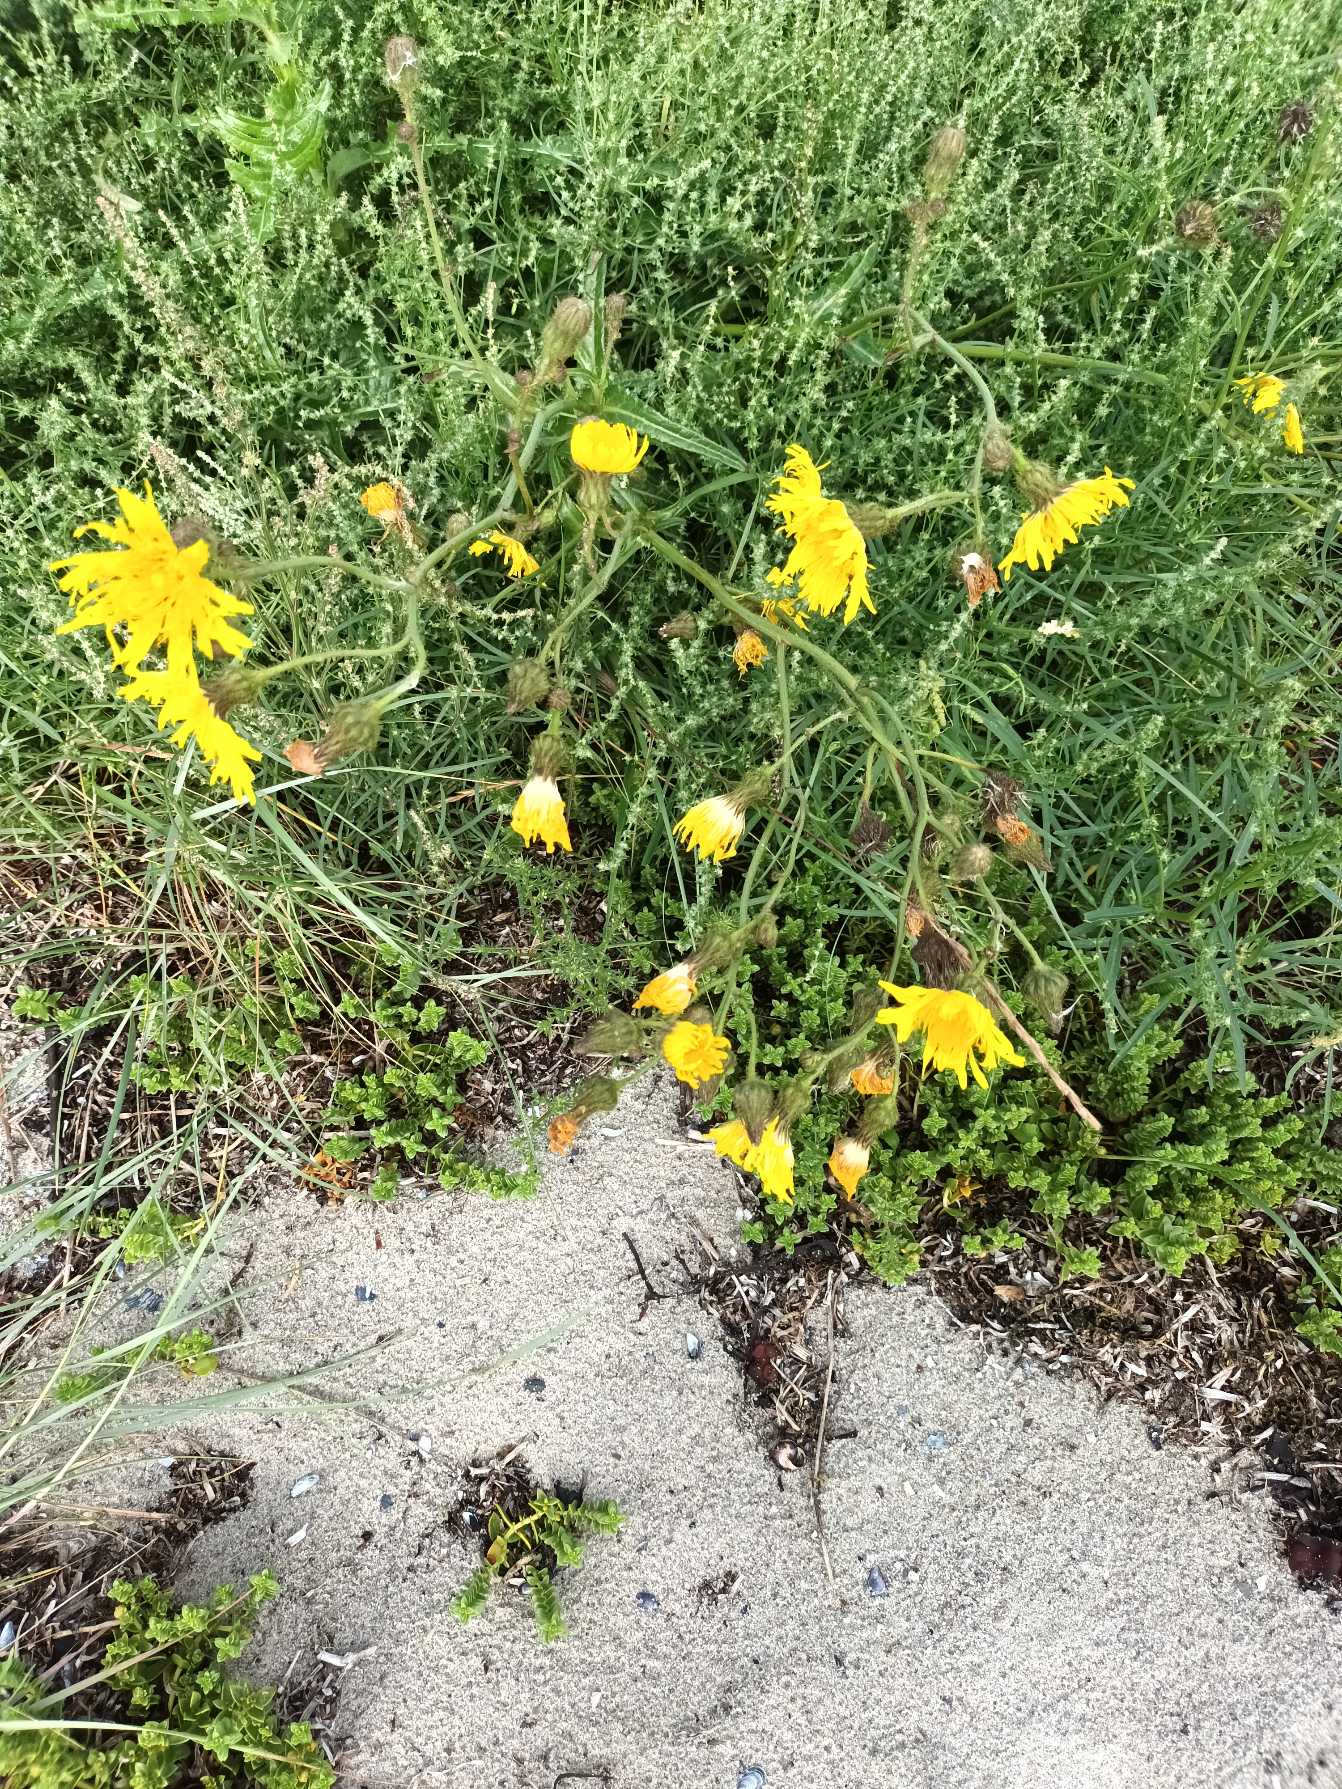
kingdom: Plantae
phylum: Tracheophyta
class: Magnoliopsida
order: Asterales
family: Asteraceae
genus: Sonchus
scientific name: Sonchus arvensis
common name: Ager-svinemælk
